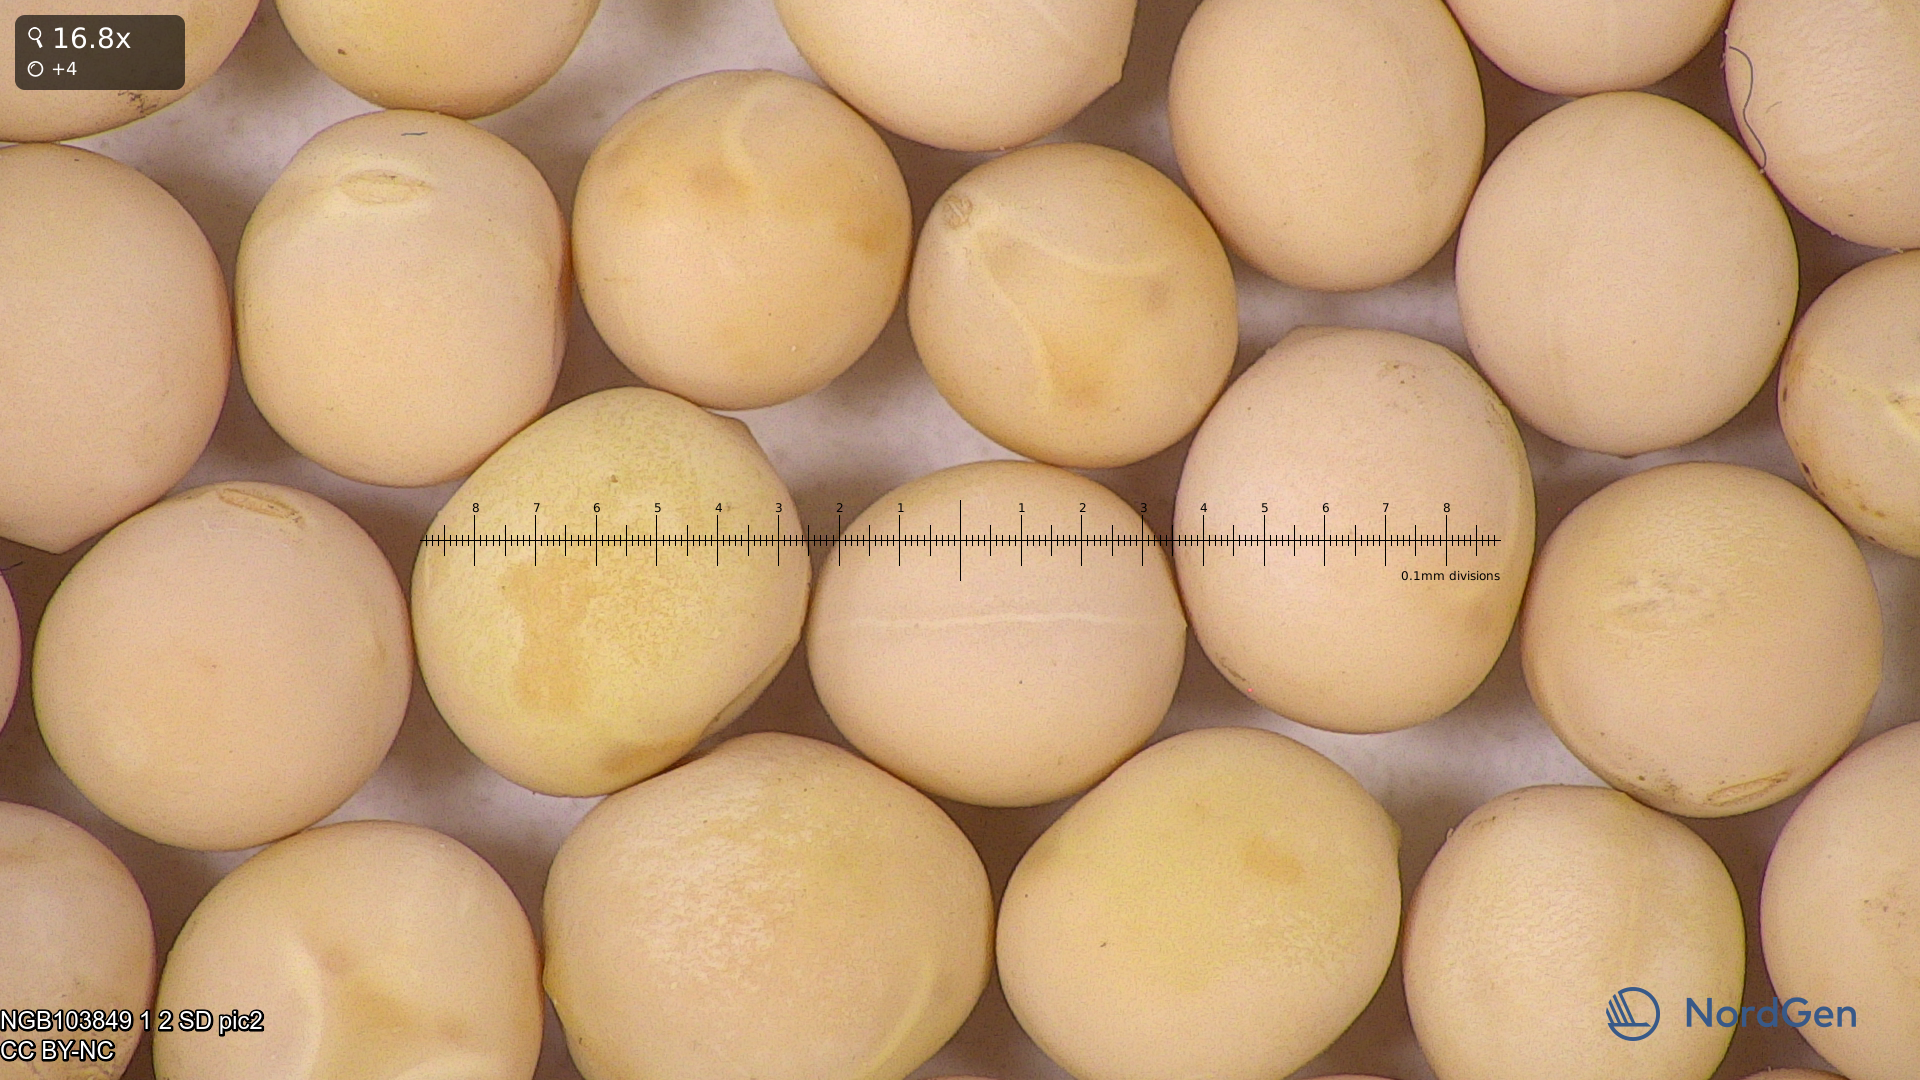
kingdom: Plantae
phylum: Tracheophyta
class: Magnoliopsida
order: Fabales
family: Fabaceae
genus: Lathyrus
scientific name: Lathyrus oleraceus
